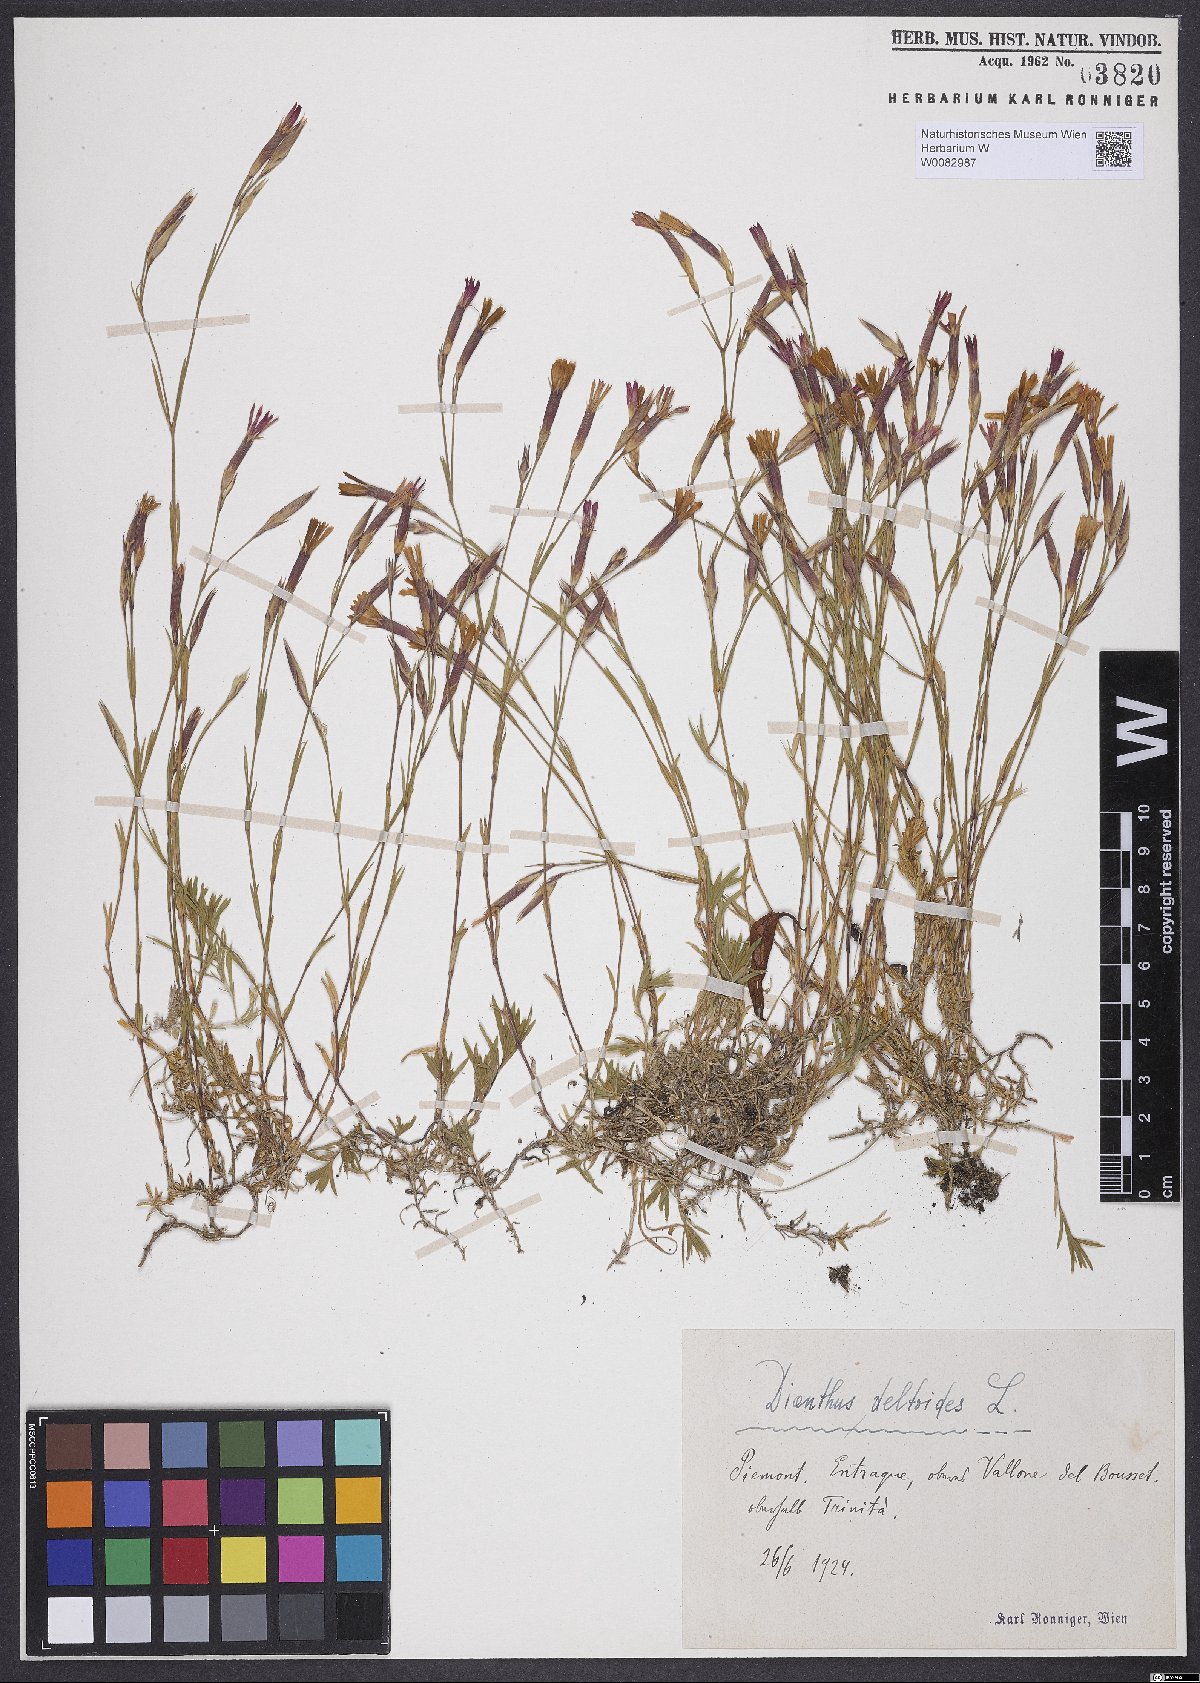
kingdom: Plantae
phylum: Tracheophyta
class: Magnoliopsida
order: Caryophyllales
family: Caryophyllaceae
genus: Dianthus
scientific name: Dianthus deltoides
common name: Maiden pink
